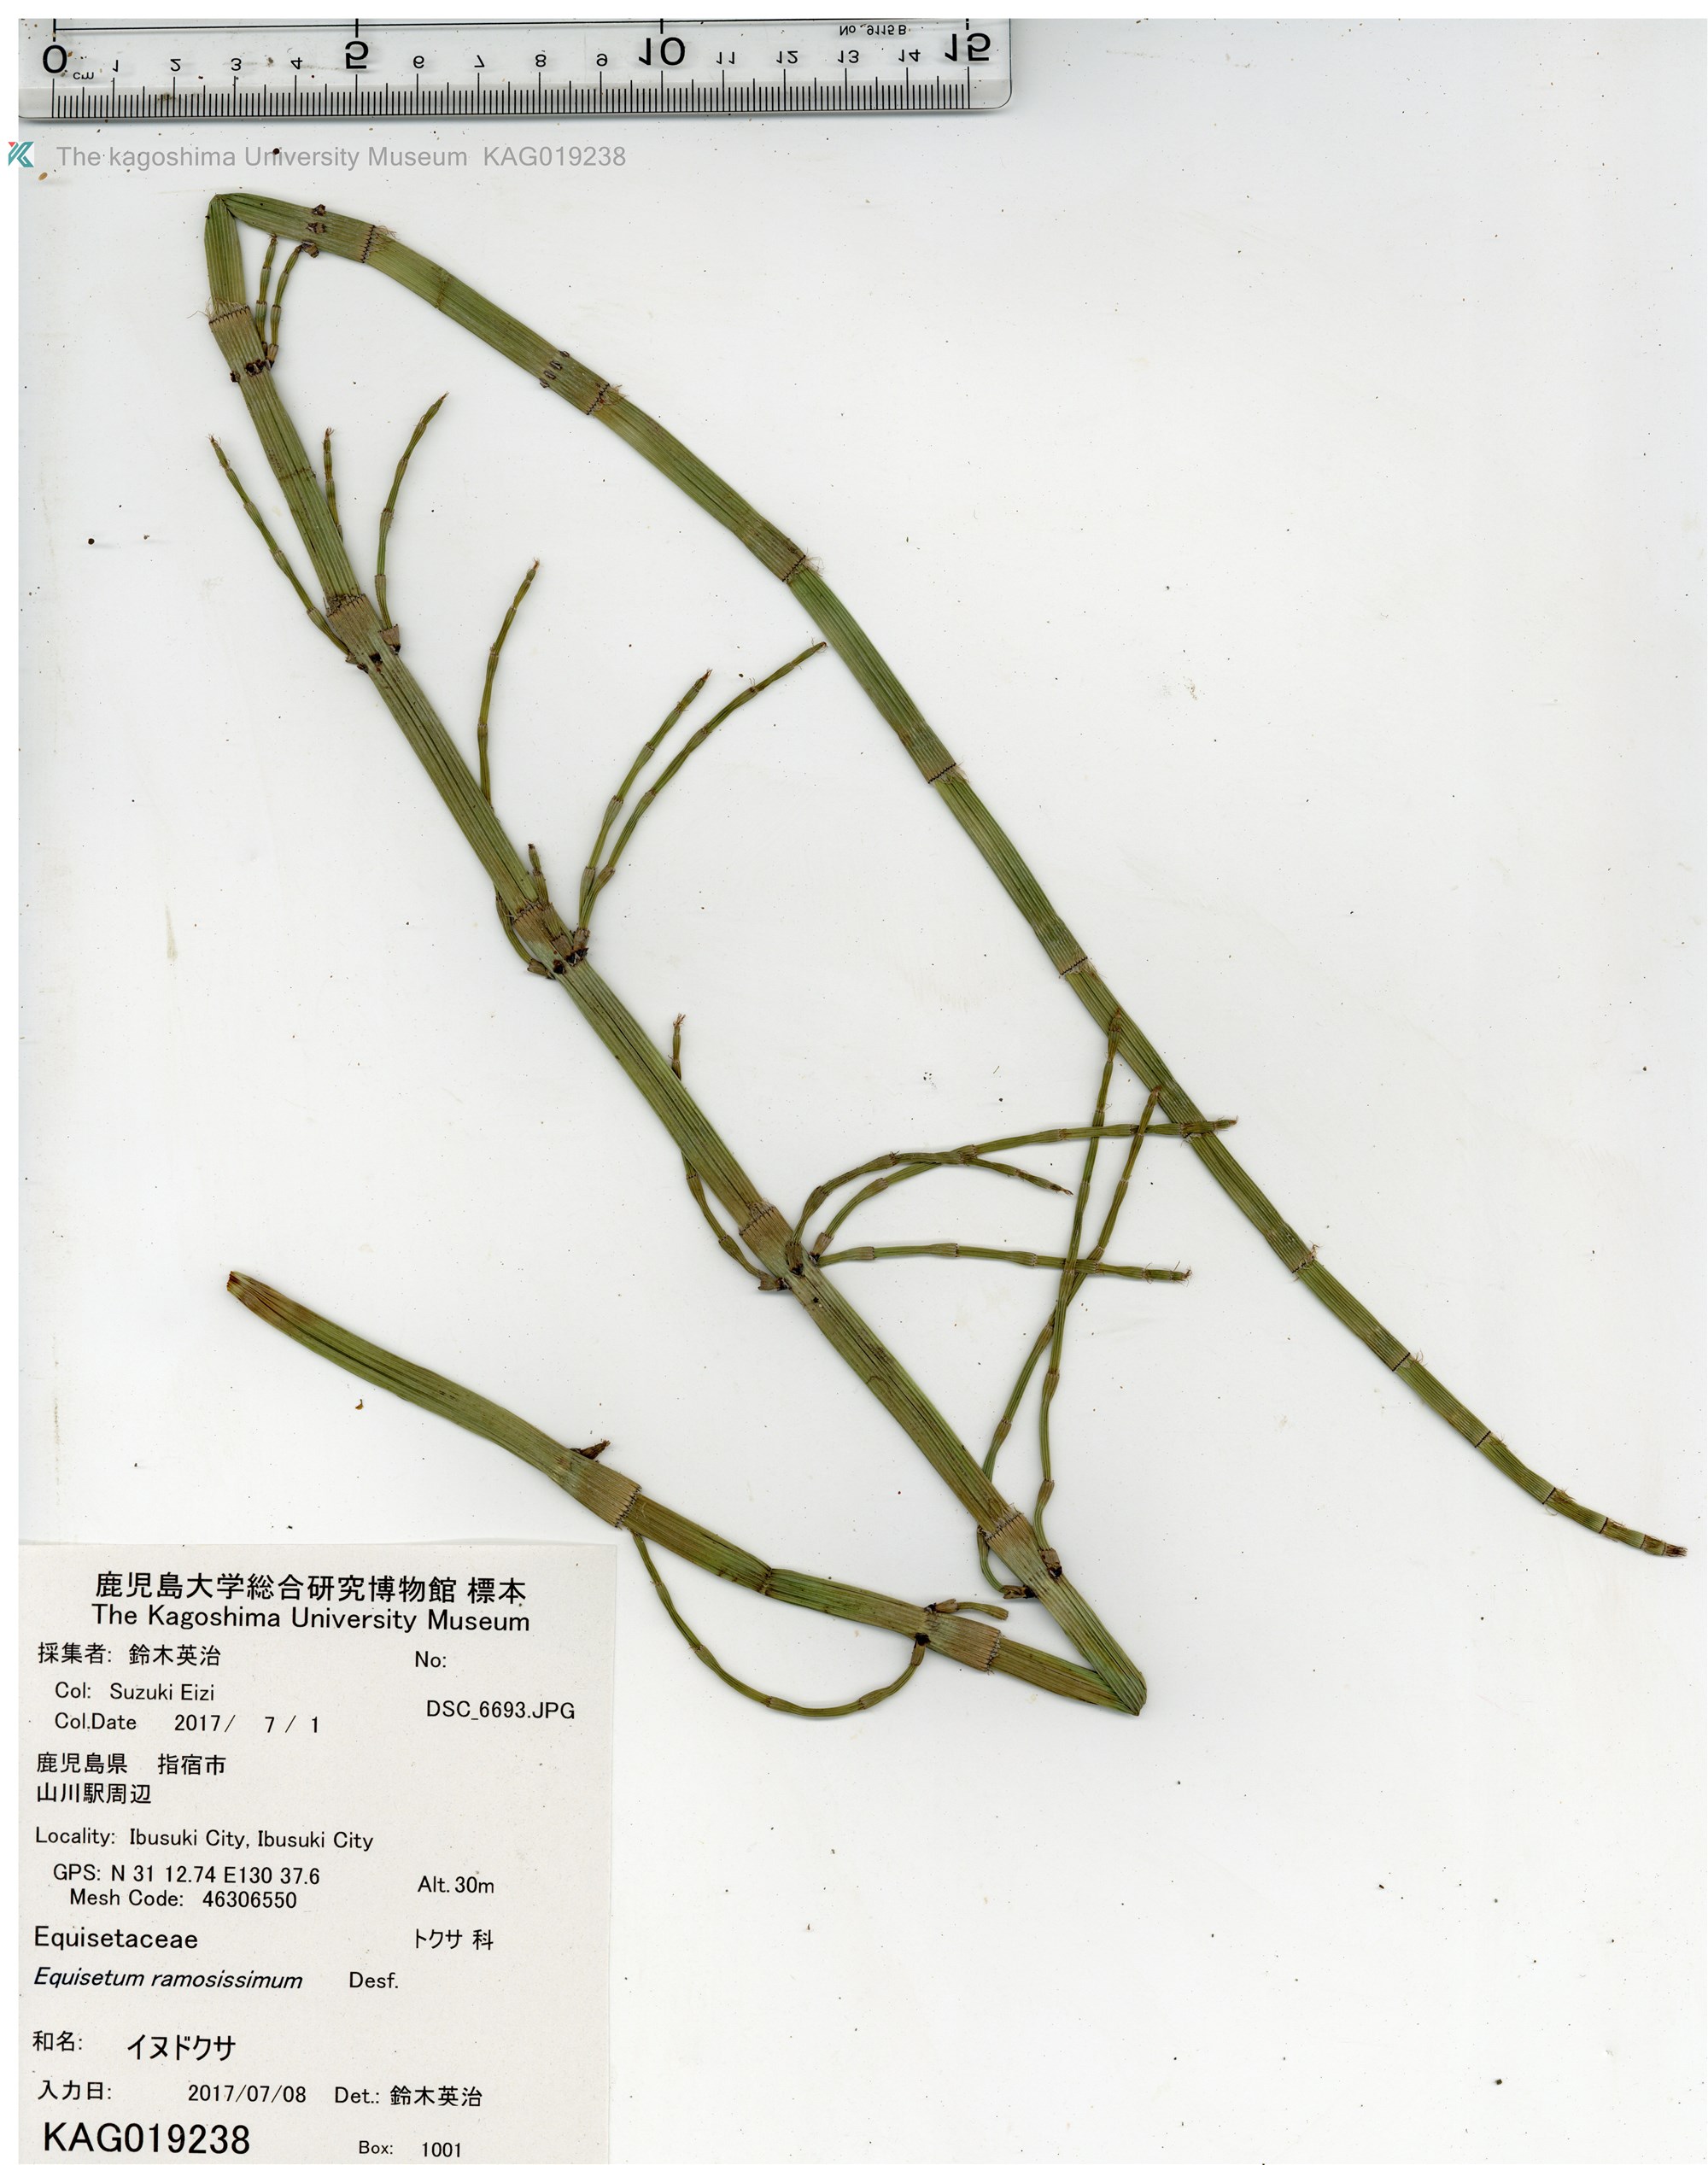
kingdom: Plantae
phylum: Tracheophyta
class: Polypodiopsida
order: Equisetales
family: Equisetaceae
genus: Equisetum
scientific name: Equisetum ramosissimum
